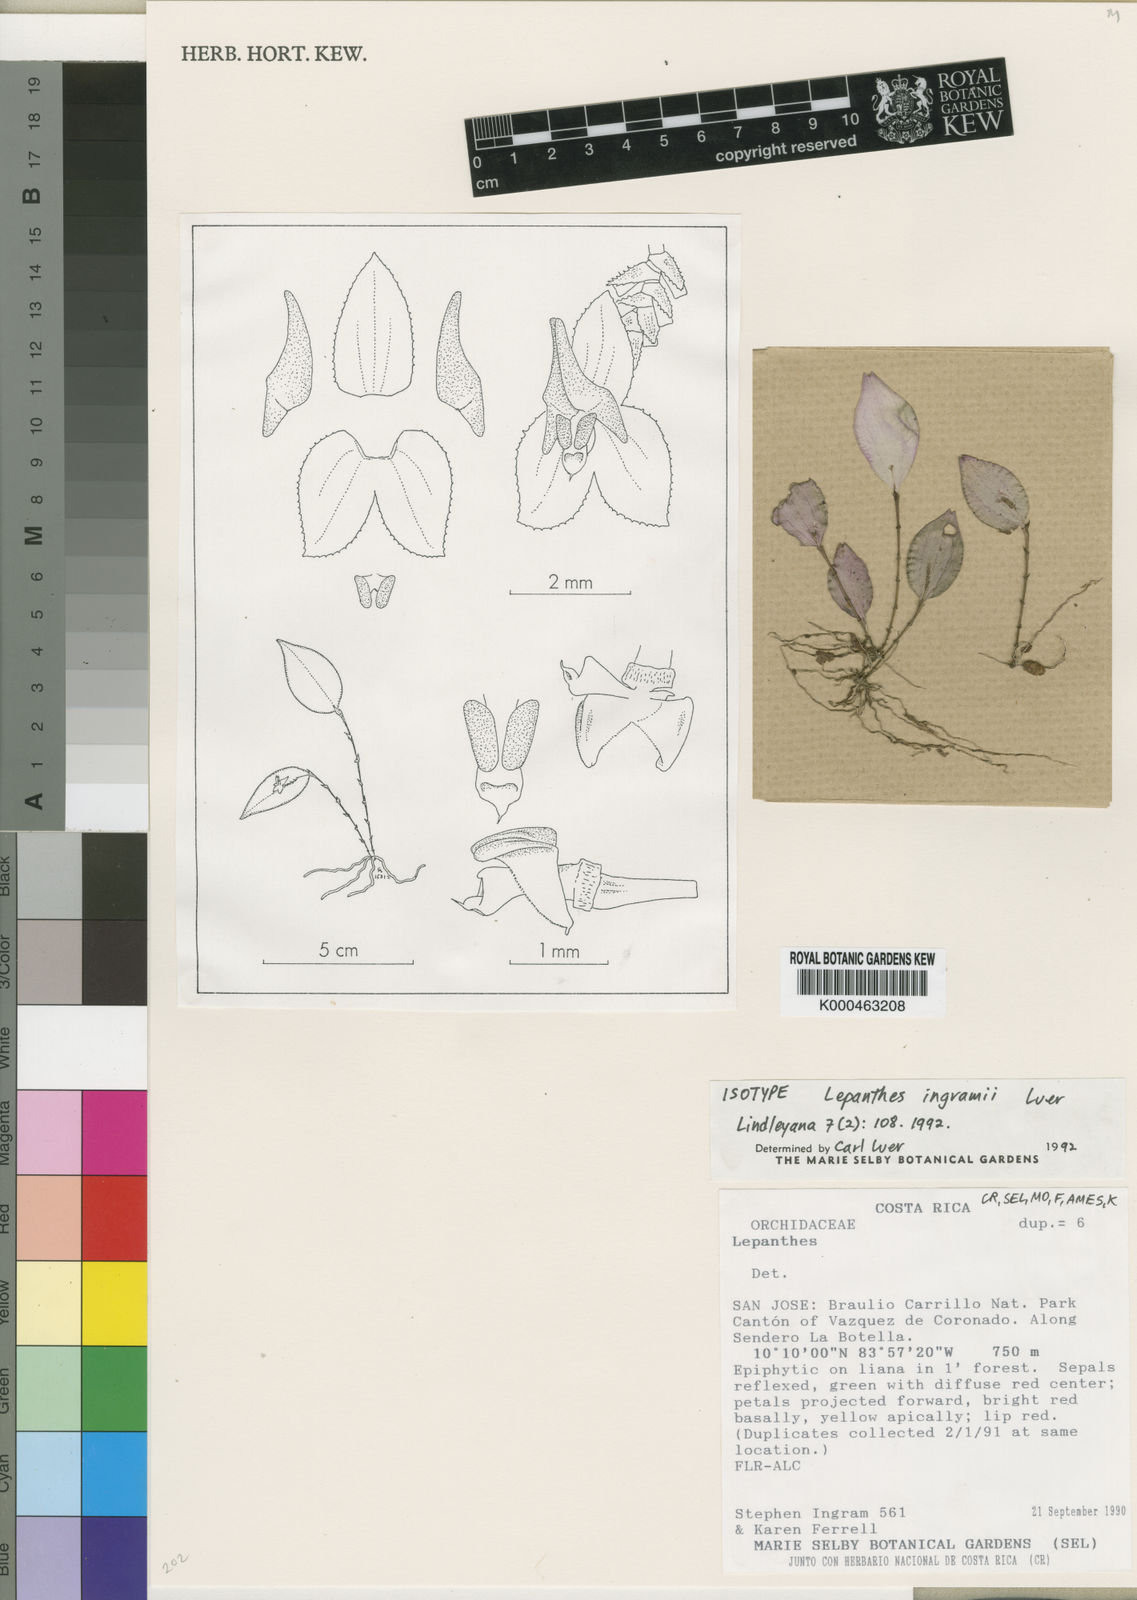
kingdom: Plantae
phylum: Tracheophyta
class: Liliopsida
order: Asparagales
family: Orchidaceae
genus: Lepanthes
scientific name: Lepanthes subdimidiata
